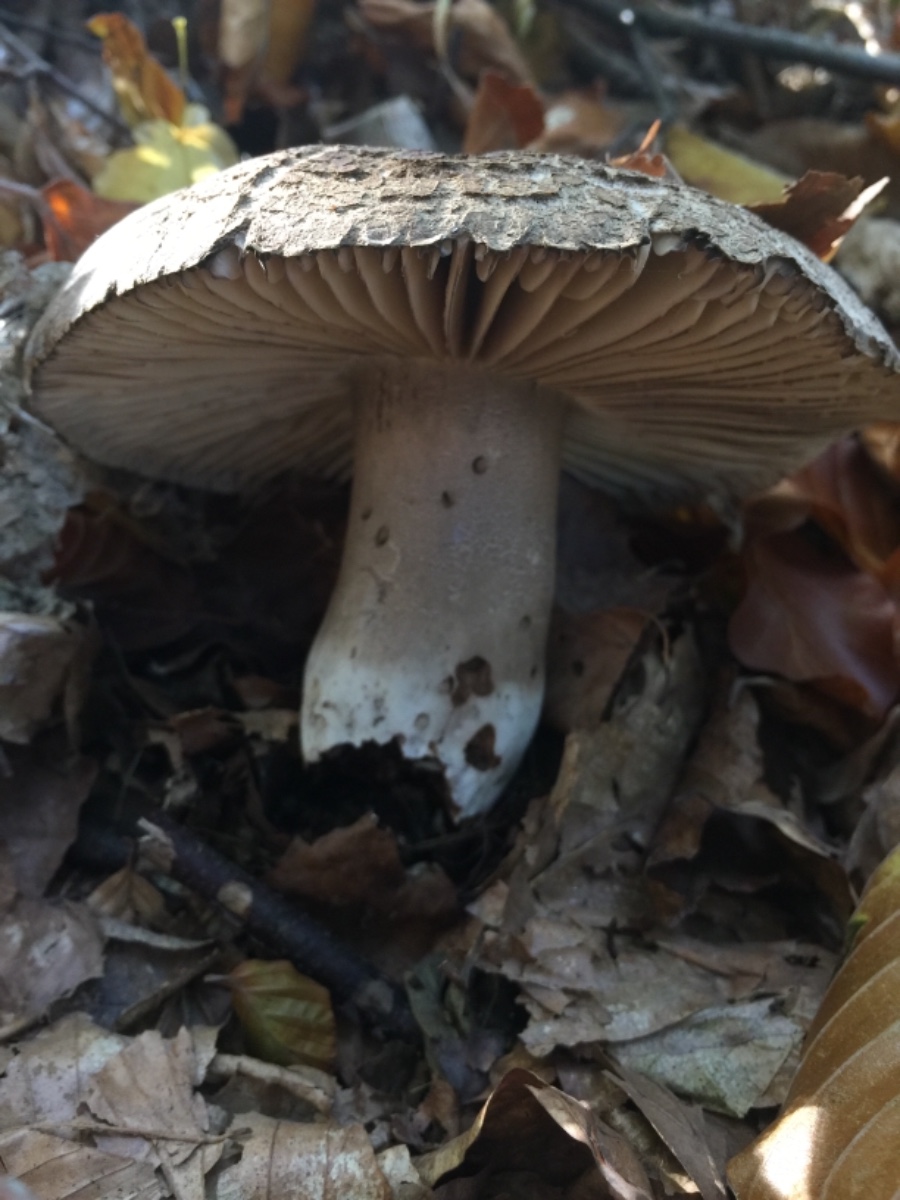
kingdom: Fungi
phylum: Basidiomycota
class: Agaricomycetes
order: Russulales
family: Russulaceae
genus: Russula
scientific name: Russula adusta
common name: sværtende skørhat
